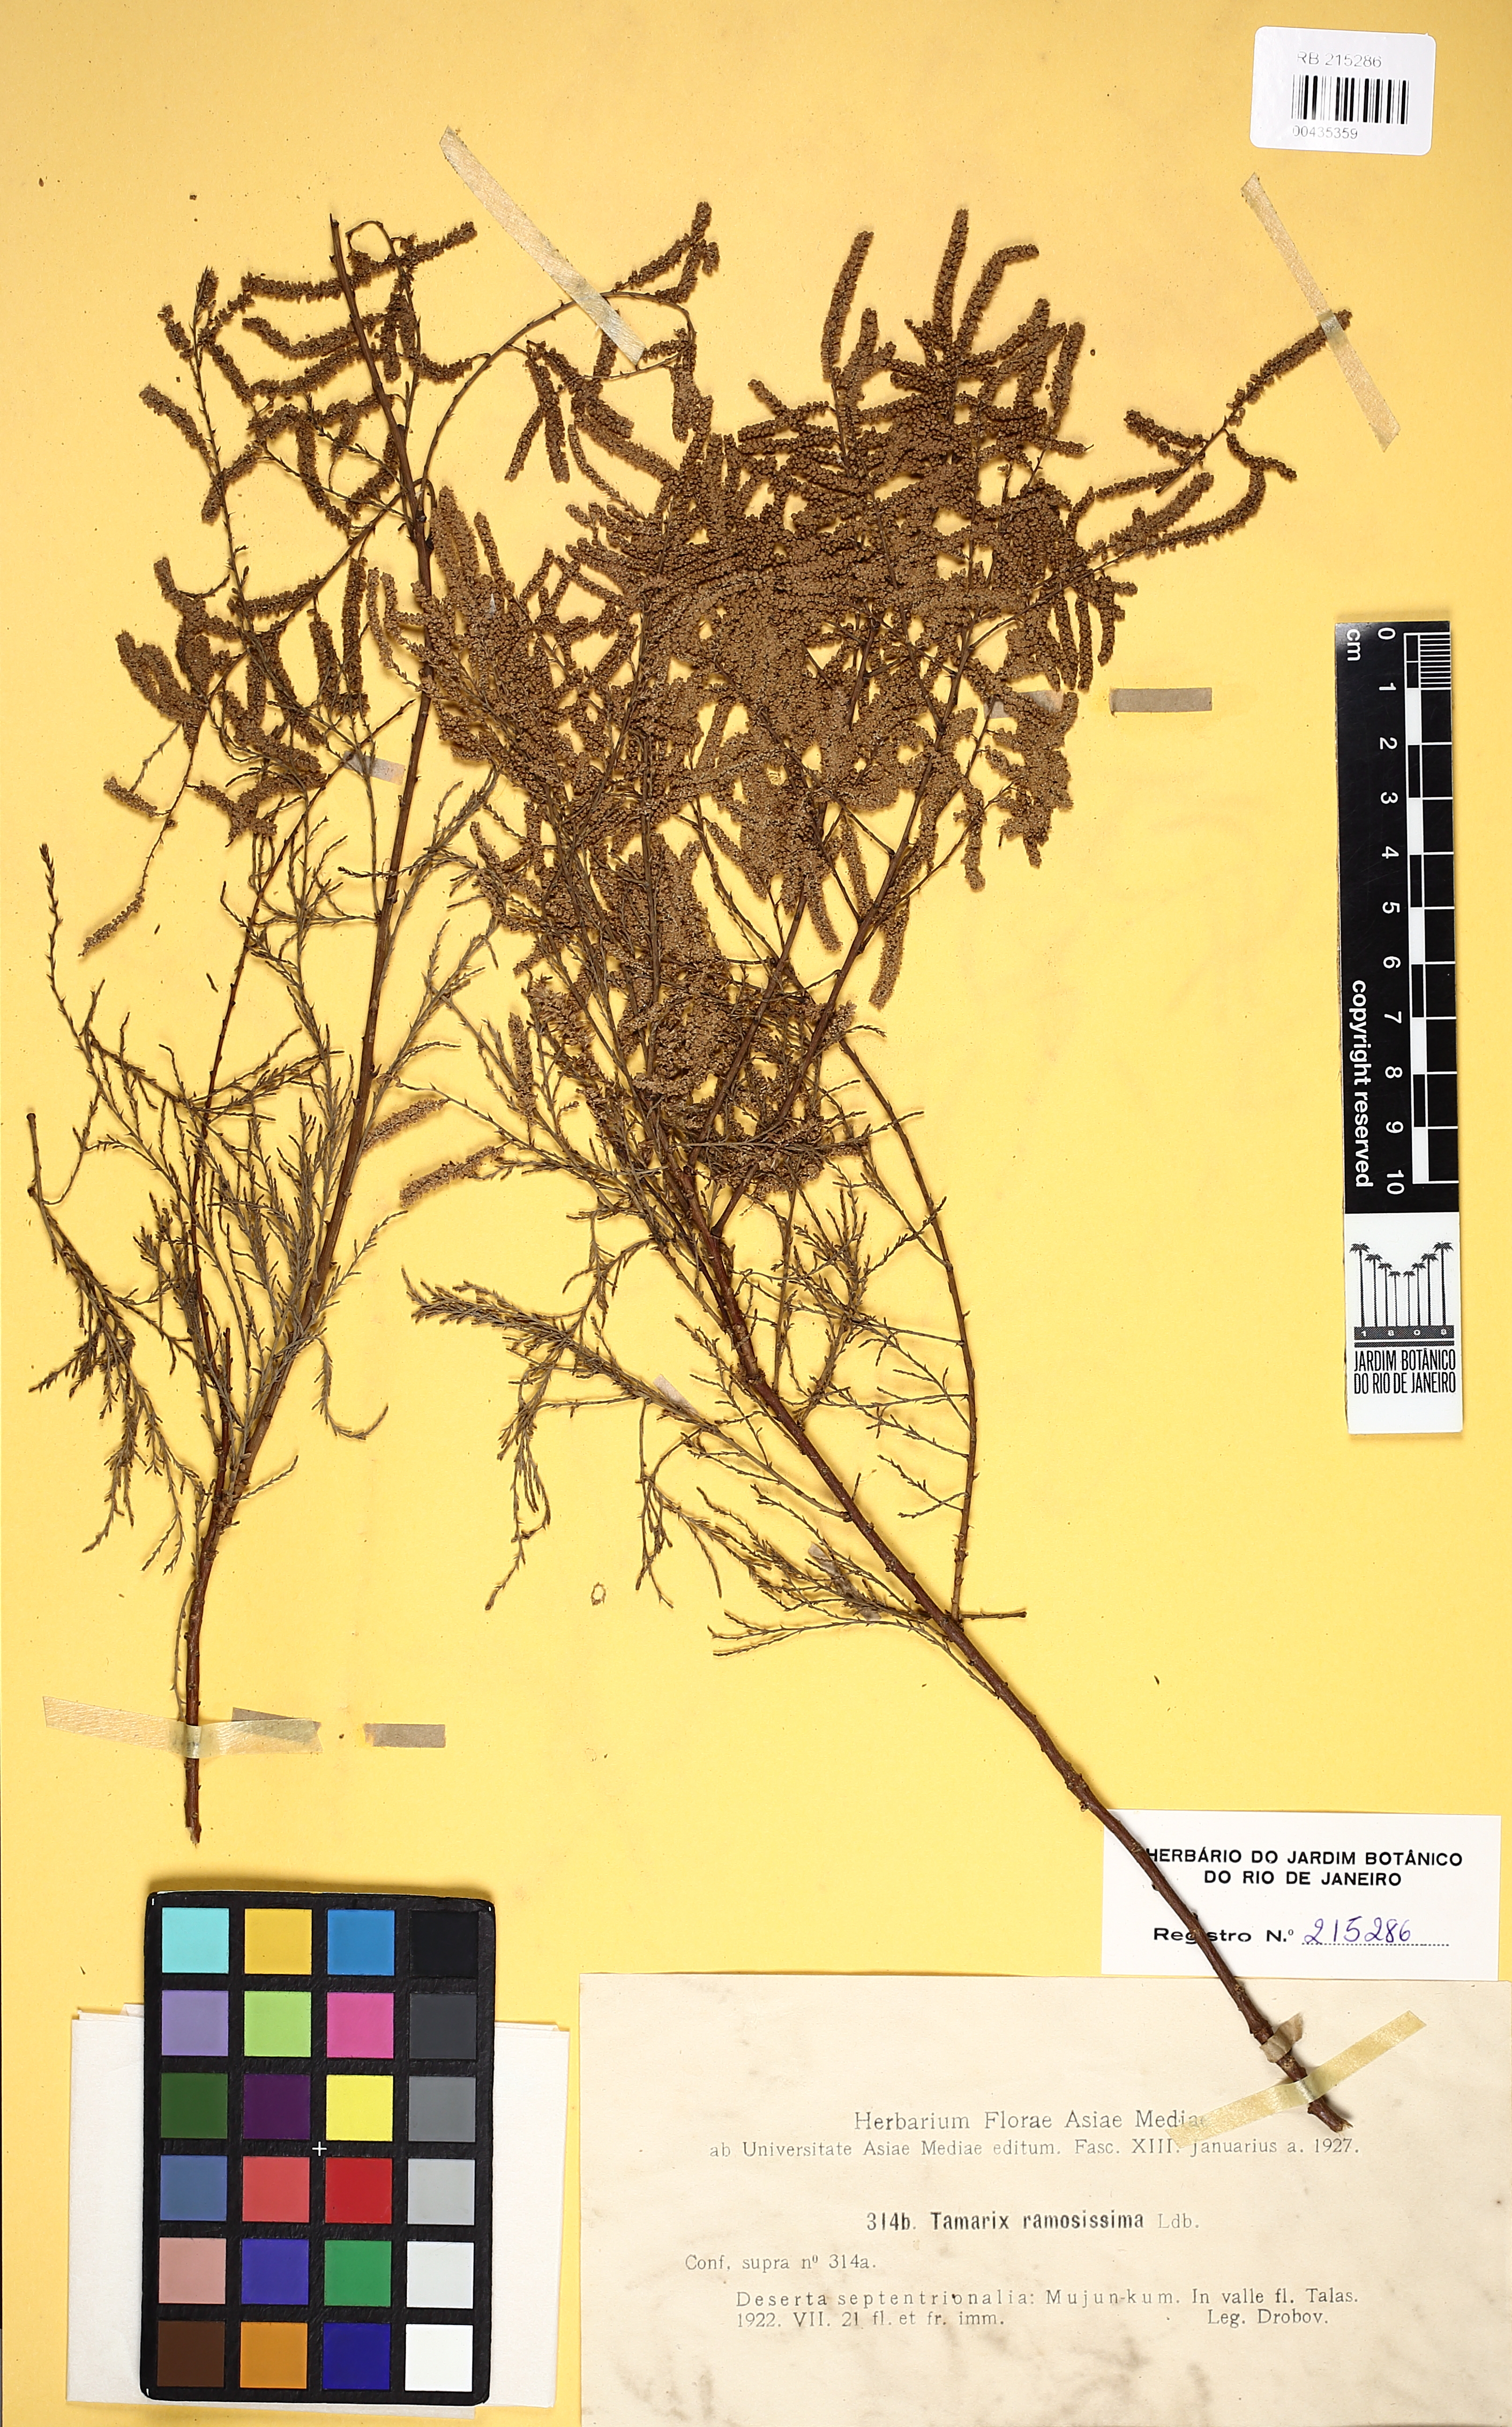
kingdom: Plantae
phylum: Tracheophyta
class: Magnoliopsida
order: Caryophyllales
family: Tamaricaceae
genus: Tamarix
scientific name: Tamarix karelinii
